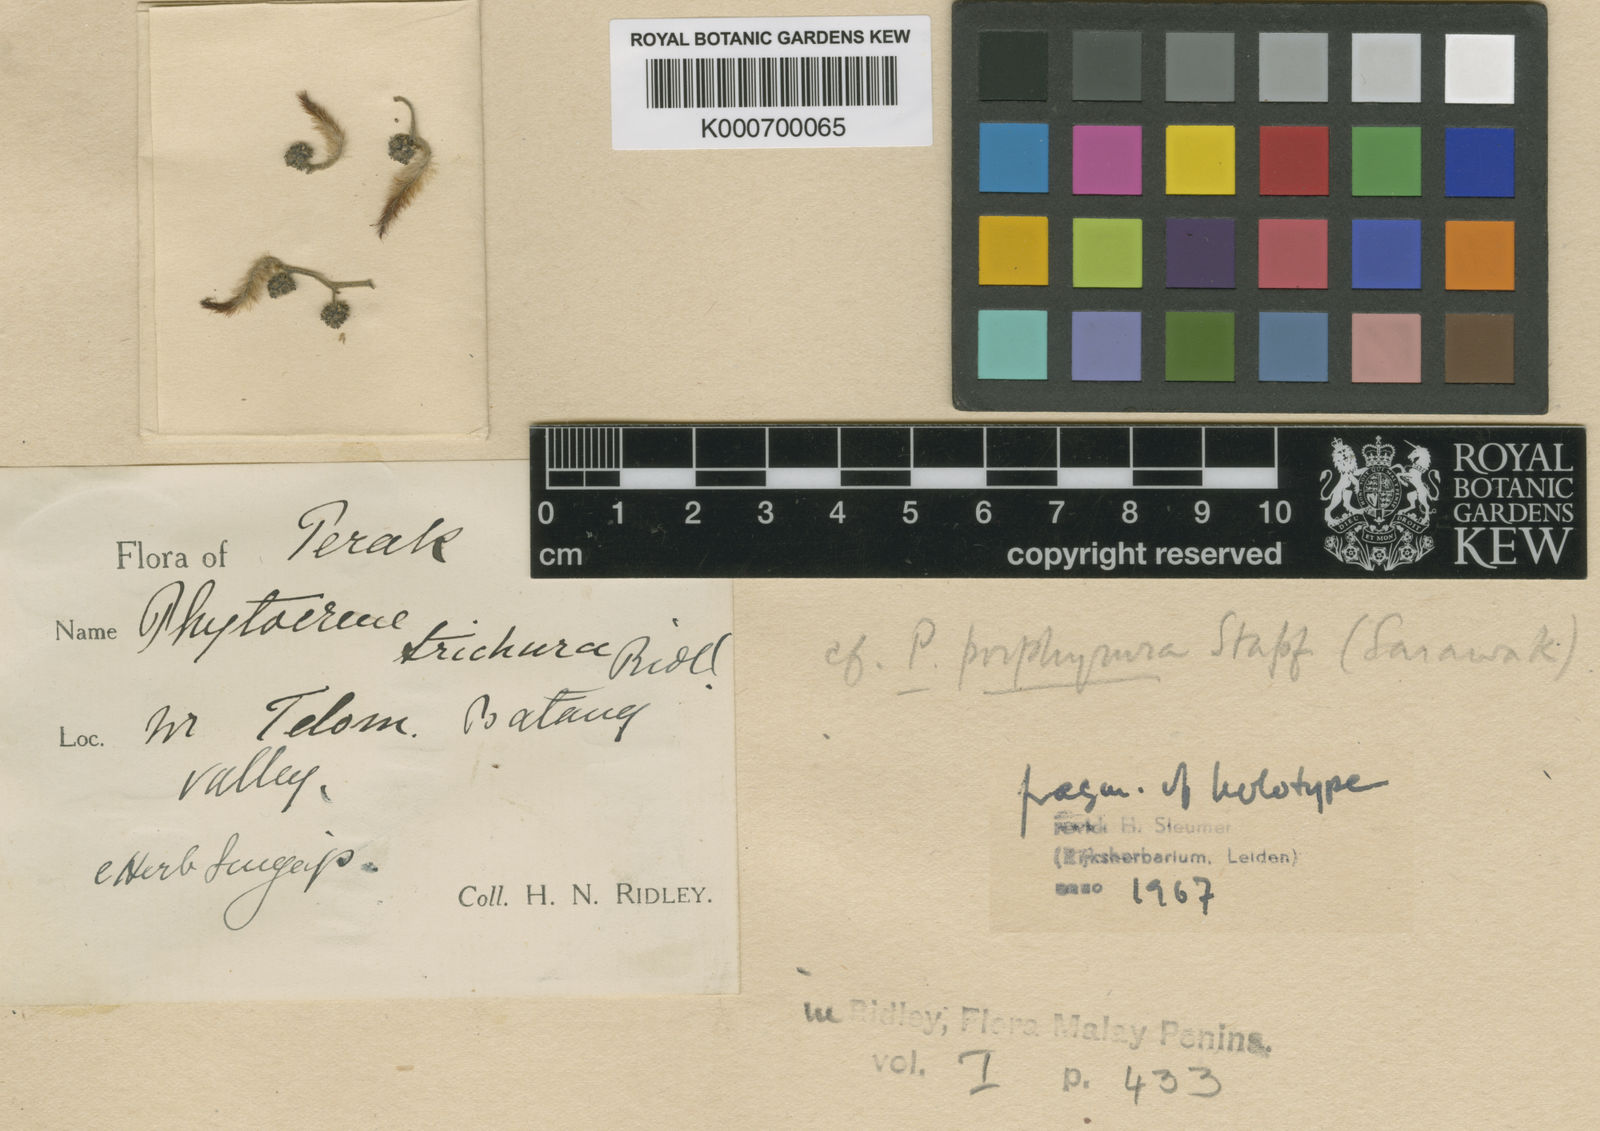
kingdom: Plantae
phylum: Tracheophyta
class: Magnoliopsida
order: Icacinales
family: Icacinaceae
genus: Phytocrene
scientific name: Phytocrene trichura
